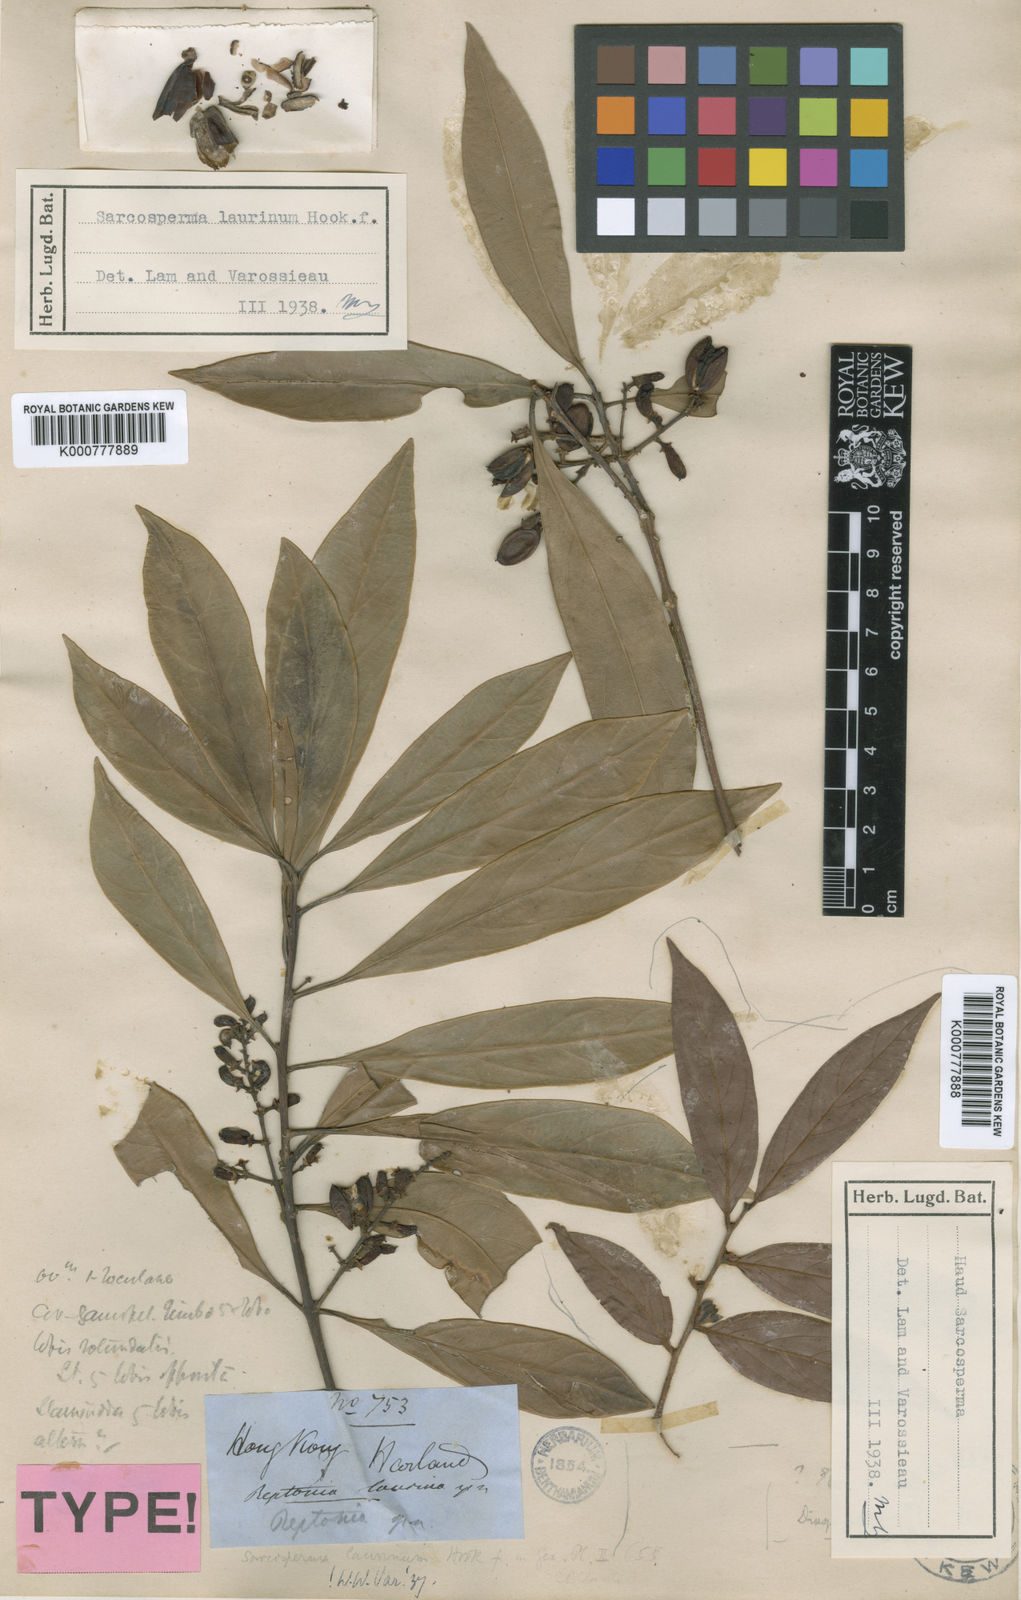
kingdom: Plantae
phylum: Tracheophyta
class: Magnoliopsida
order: Ericales
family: Sapotaceae
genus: Sarcosperma
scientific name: Sarcosperma laurinum
